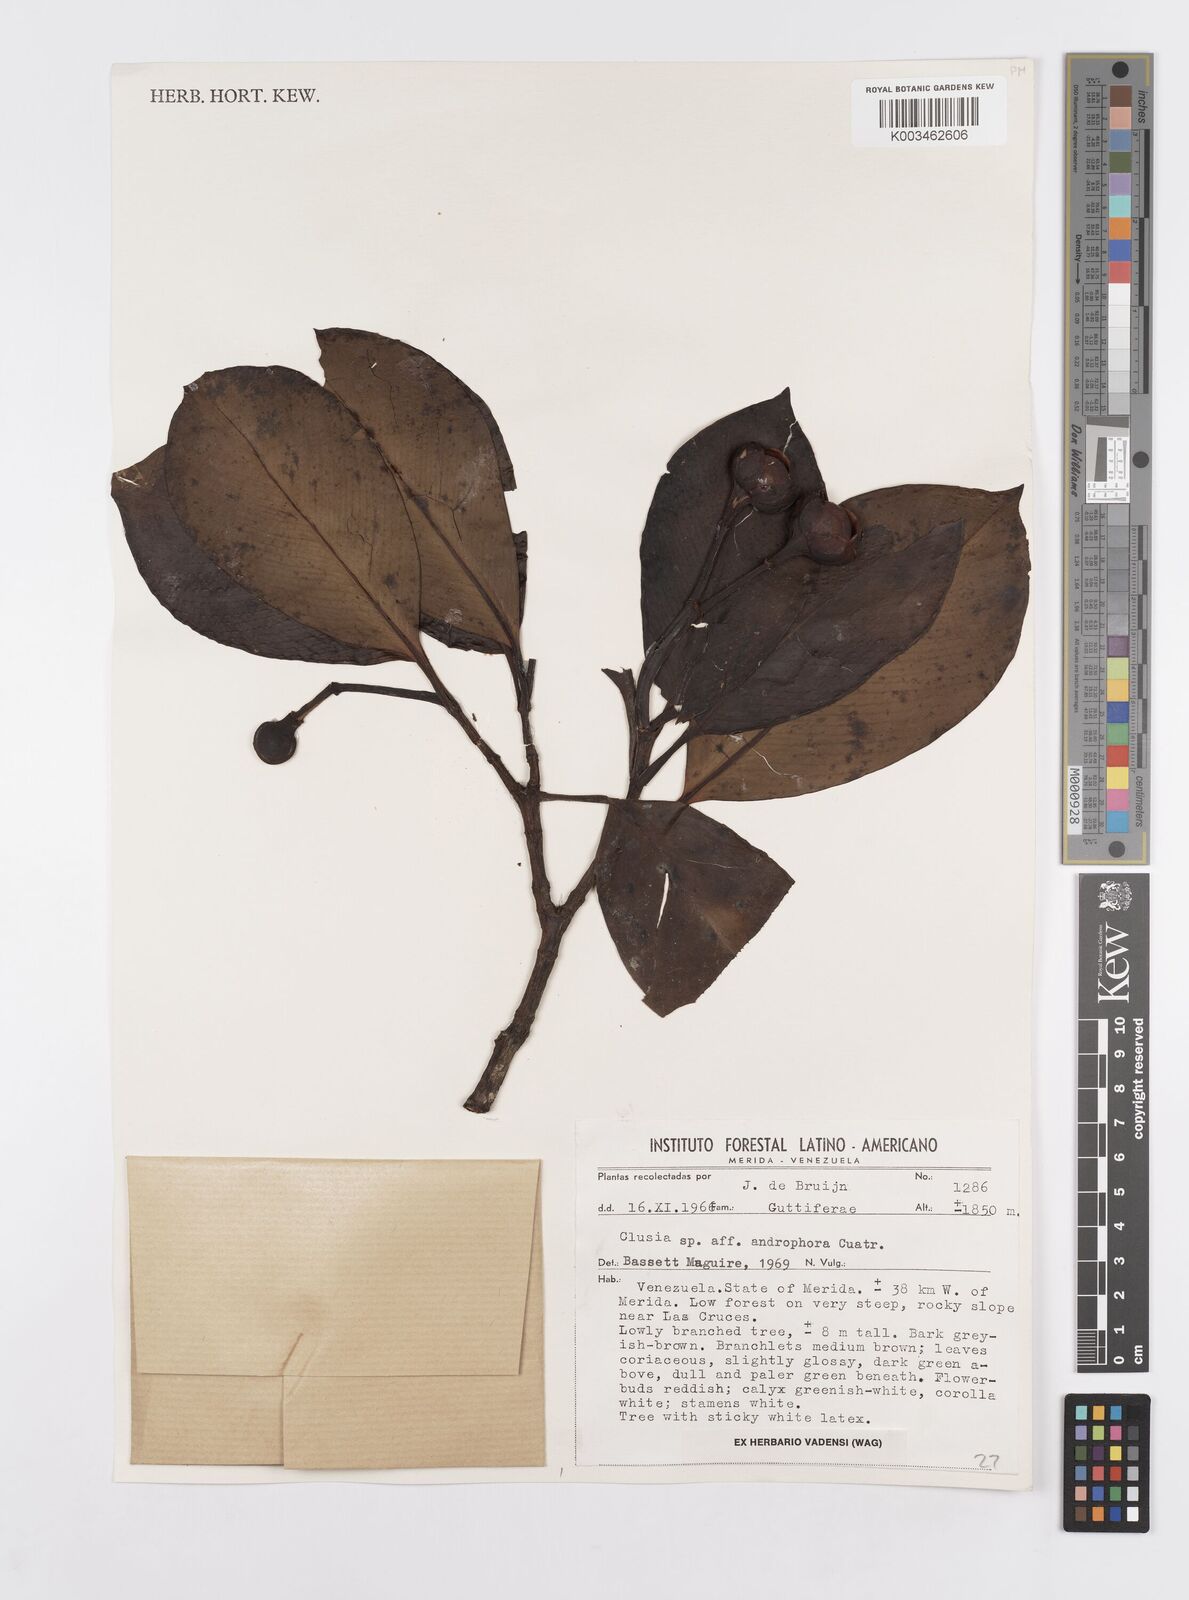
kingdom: Plantae
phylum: Tracheophyta
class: Magnoliopsida
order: Malpighiales
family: Clusiaceae
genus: Clusia
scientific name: Clusia androphora
